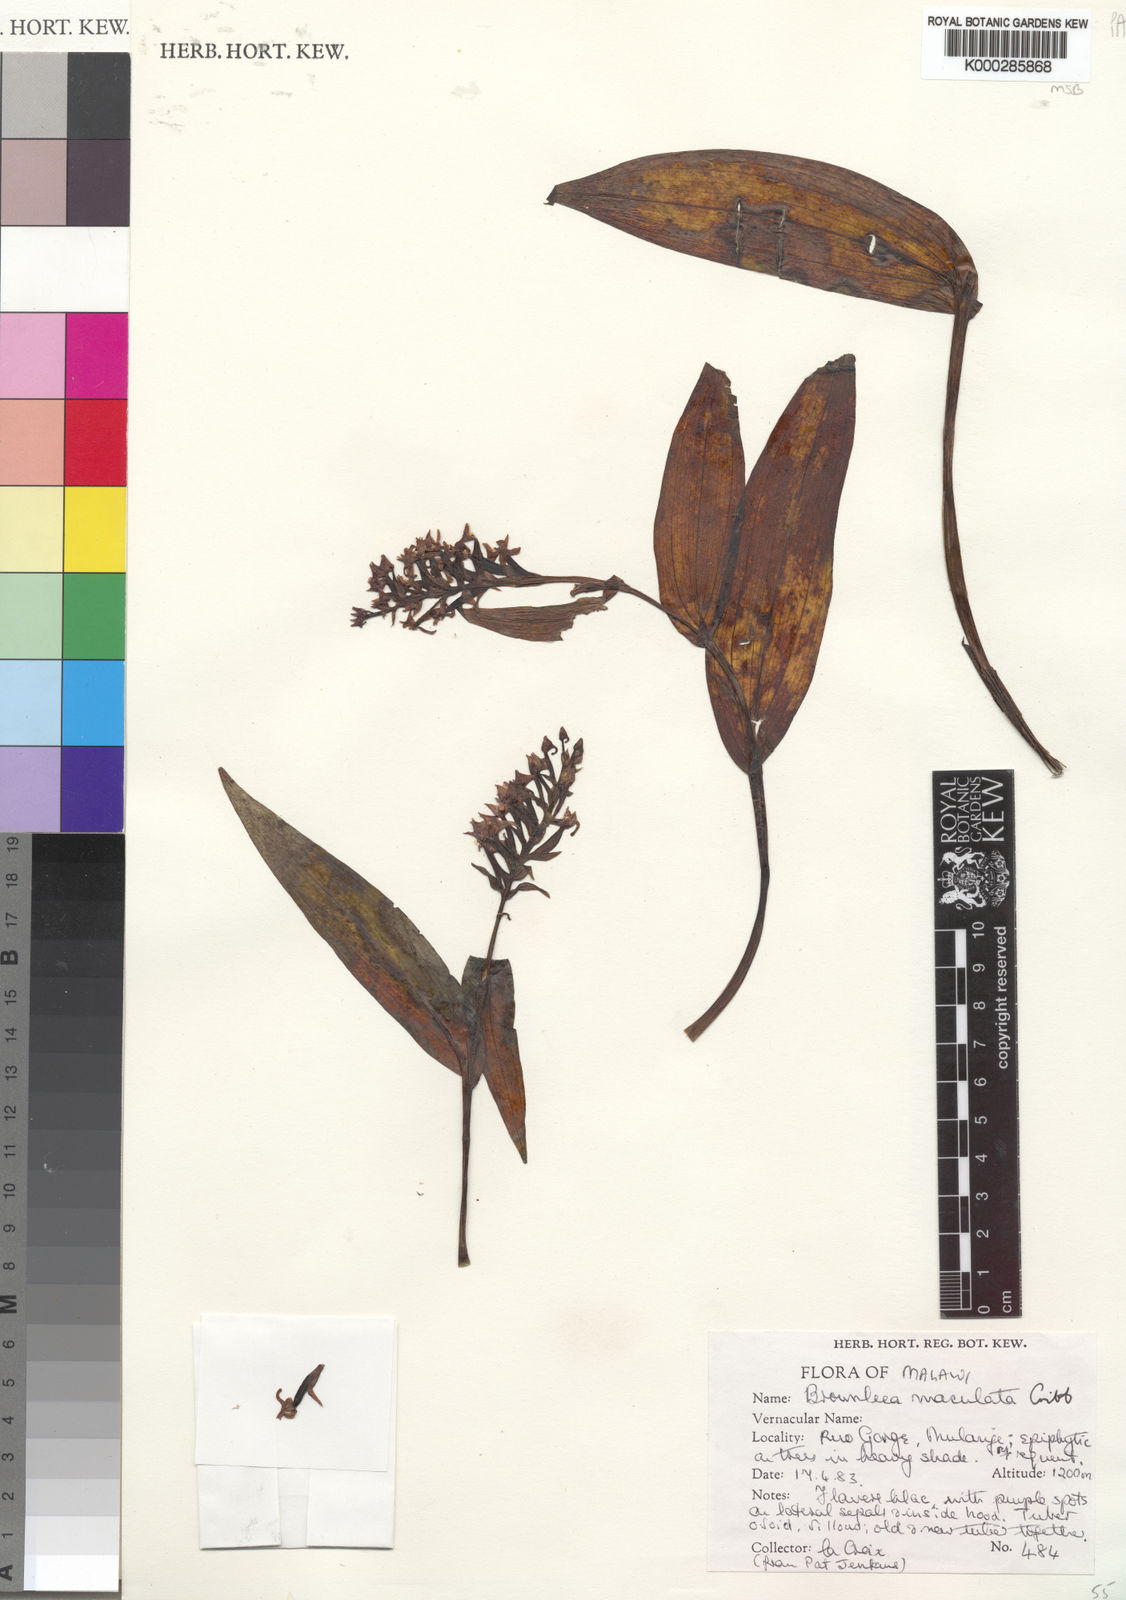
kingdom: Plantae
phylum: Tracheophyta
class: Liliopsida
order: Asparagales
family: Orchidaceae
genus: Brownleea
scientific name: Brownleea maculata
